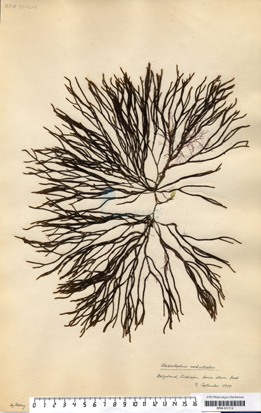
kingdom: Chromista
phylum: Ochrophyta
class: Phaeophyceae
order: Sphacelariales
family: Cladostephaceae
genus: Cladostephus
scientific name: Cladostephus spongiosus
